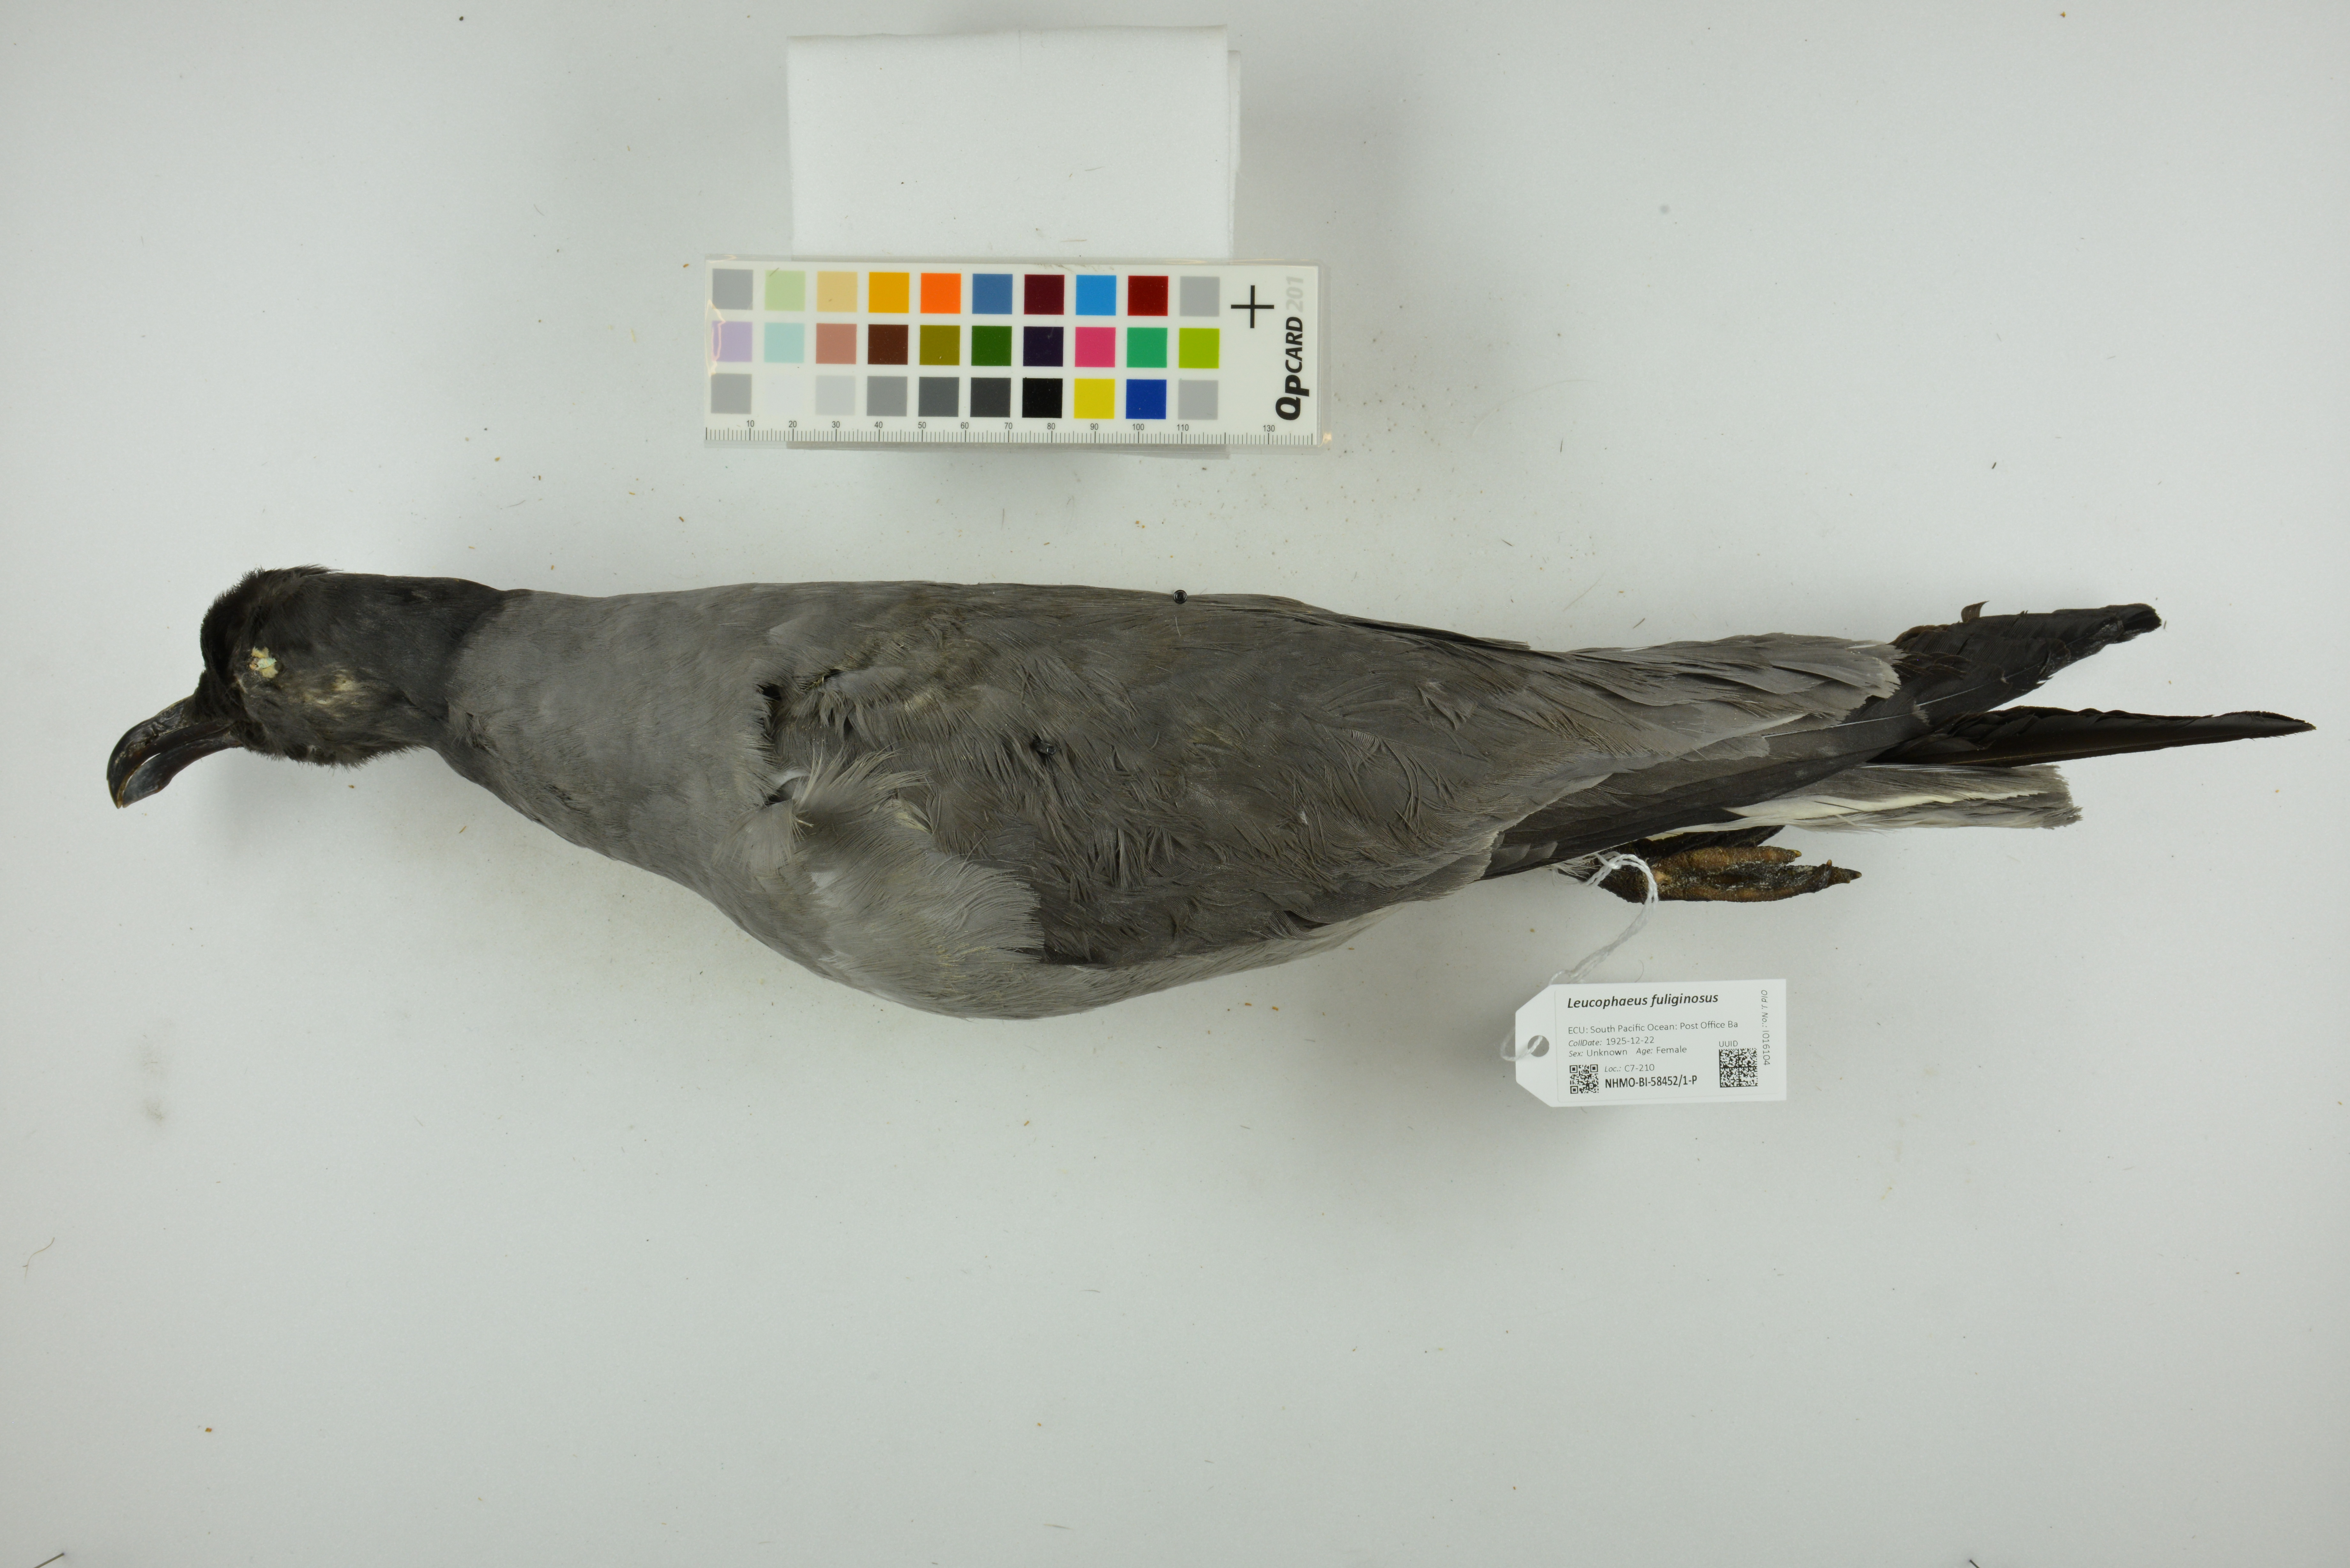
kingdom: Animalia
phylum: Chordata
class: Aves
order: Charadriiformes
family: Laridae
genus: Leucophaeus
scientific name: Leucophaeus fuliginosus
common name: Lava gull
